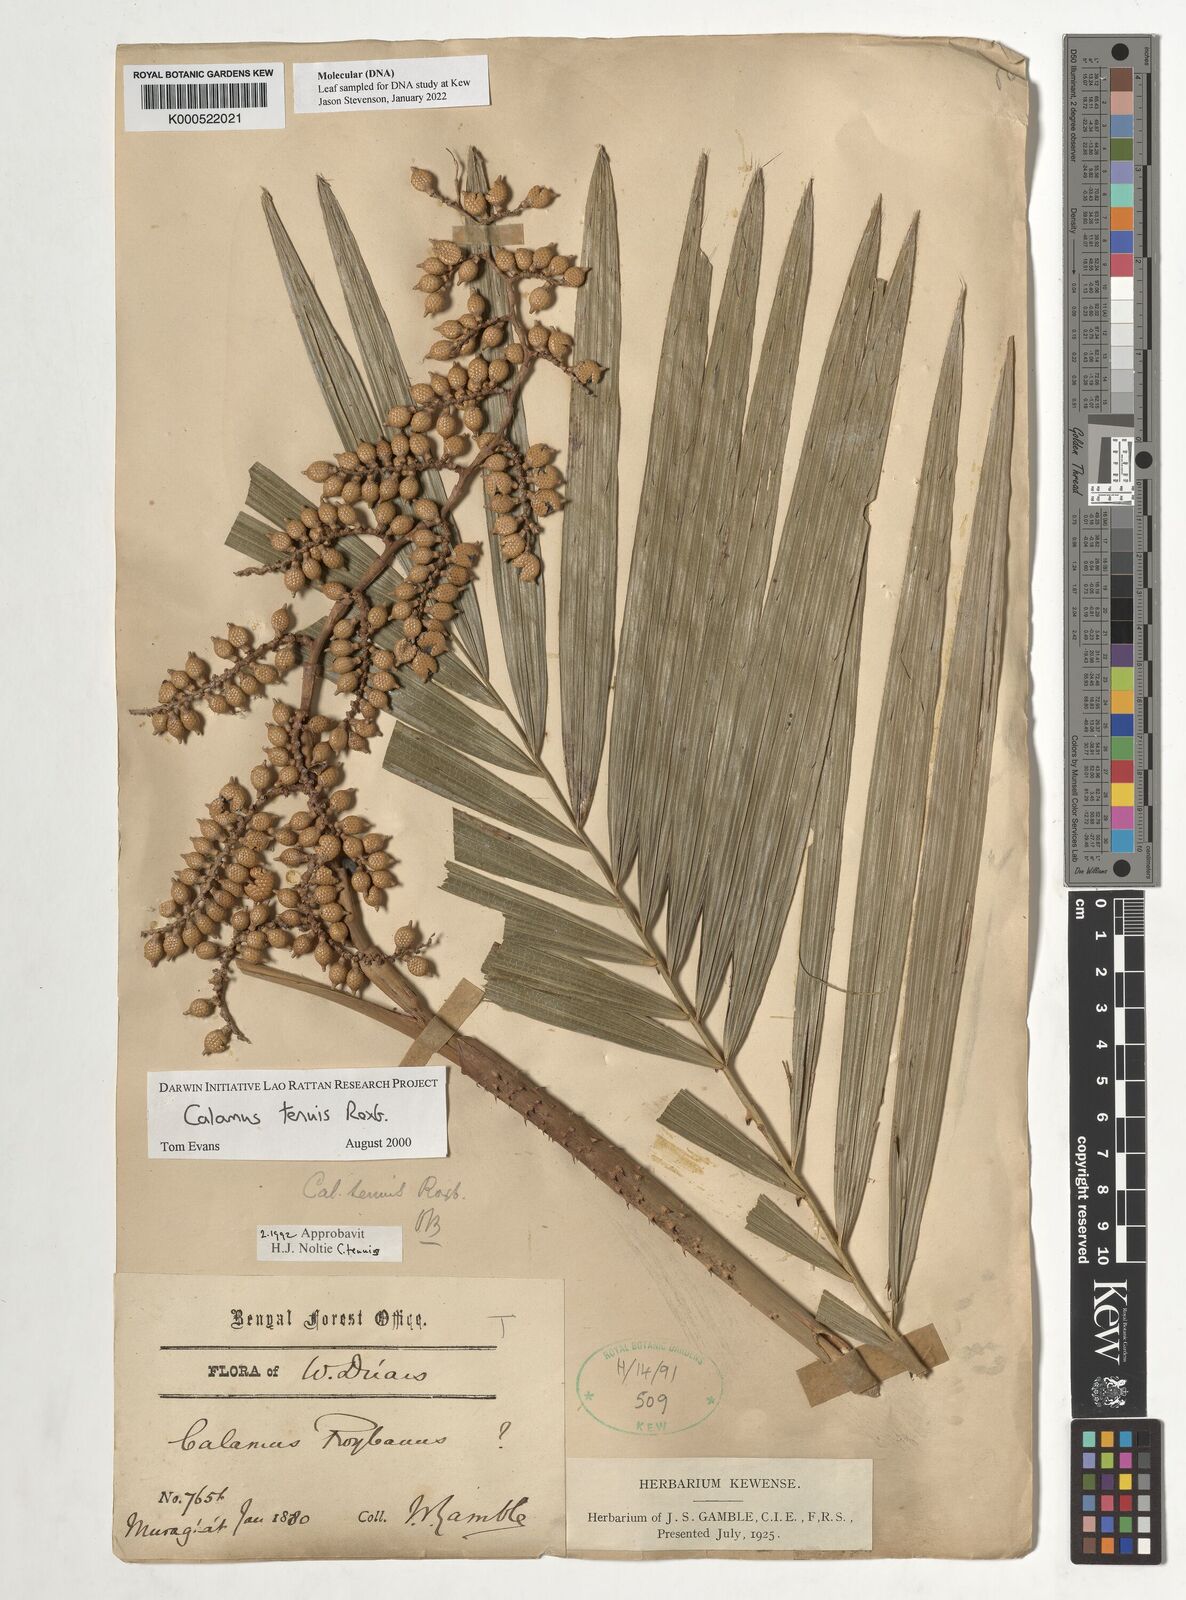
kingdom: Plantae
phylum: Tracheophyta
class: Liliopsida
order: Arecales
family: Arecaceae
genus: Calamus
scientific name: Calamus tenuis
